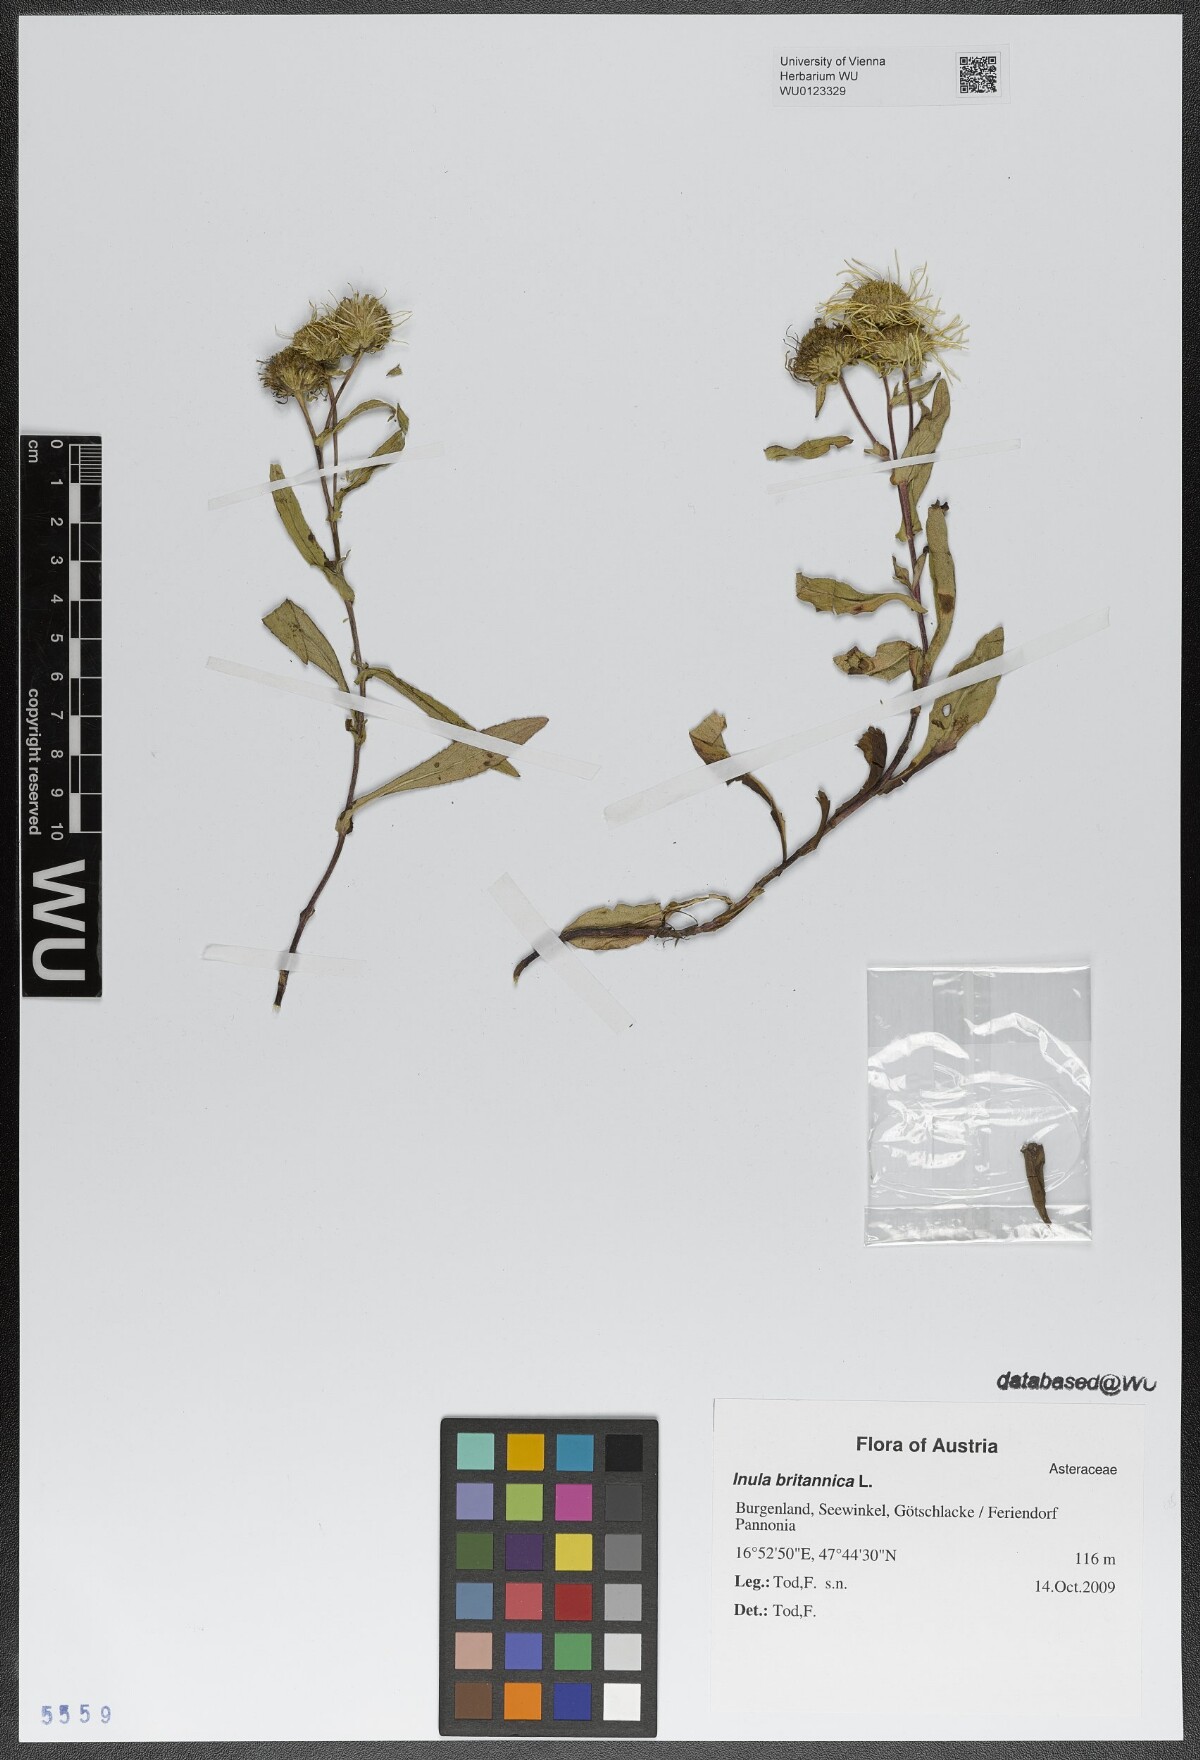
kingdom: Plantae
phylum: Tracheophyta
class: Magnoliopsida
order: Asterales
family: Asteraceae
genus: Pentanema
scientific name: Pentanema britannicum
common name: British elecampane
